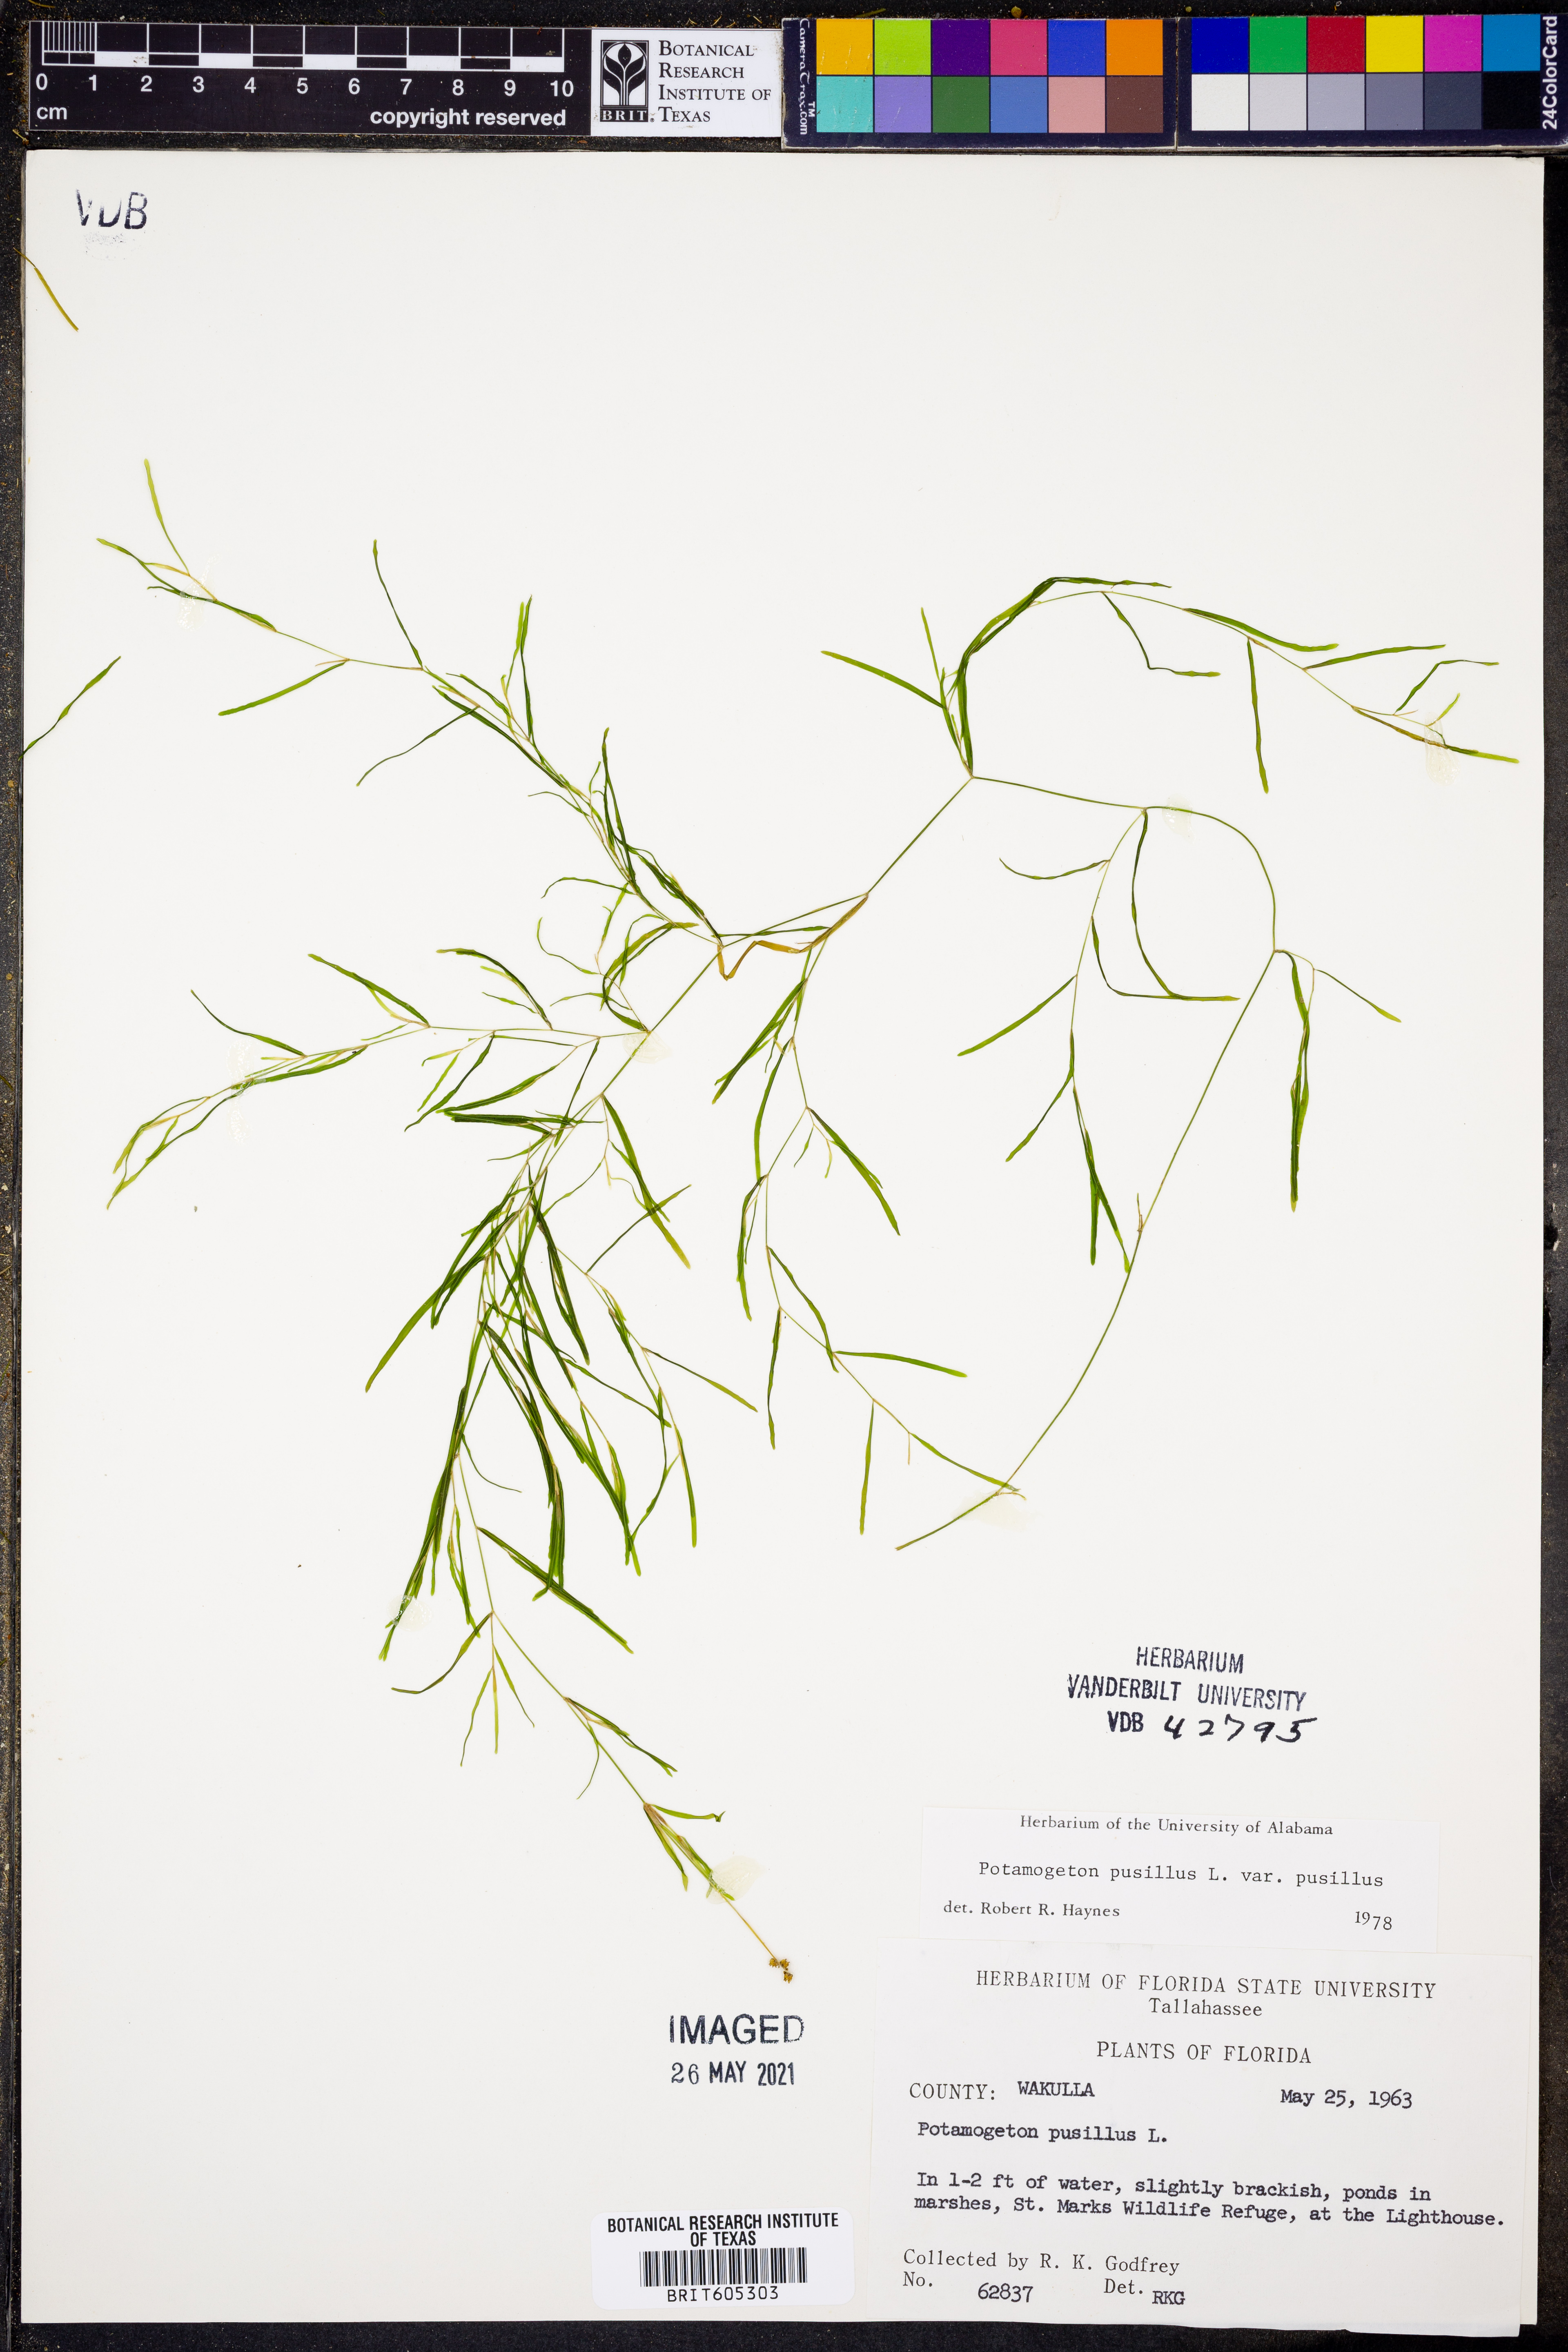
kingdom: Plantae
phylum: Tracheophyta
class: Liliopsida
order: Alismatales
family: Potamogetonaceae
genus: Potamogeton
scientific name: Potamogeton pusillus
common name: Lesser pondweed
